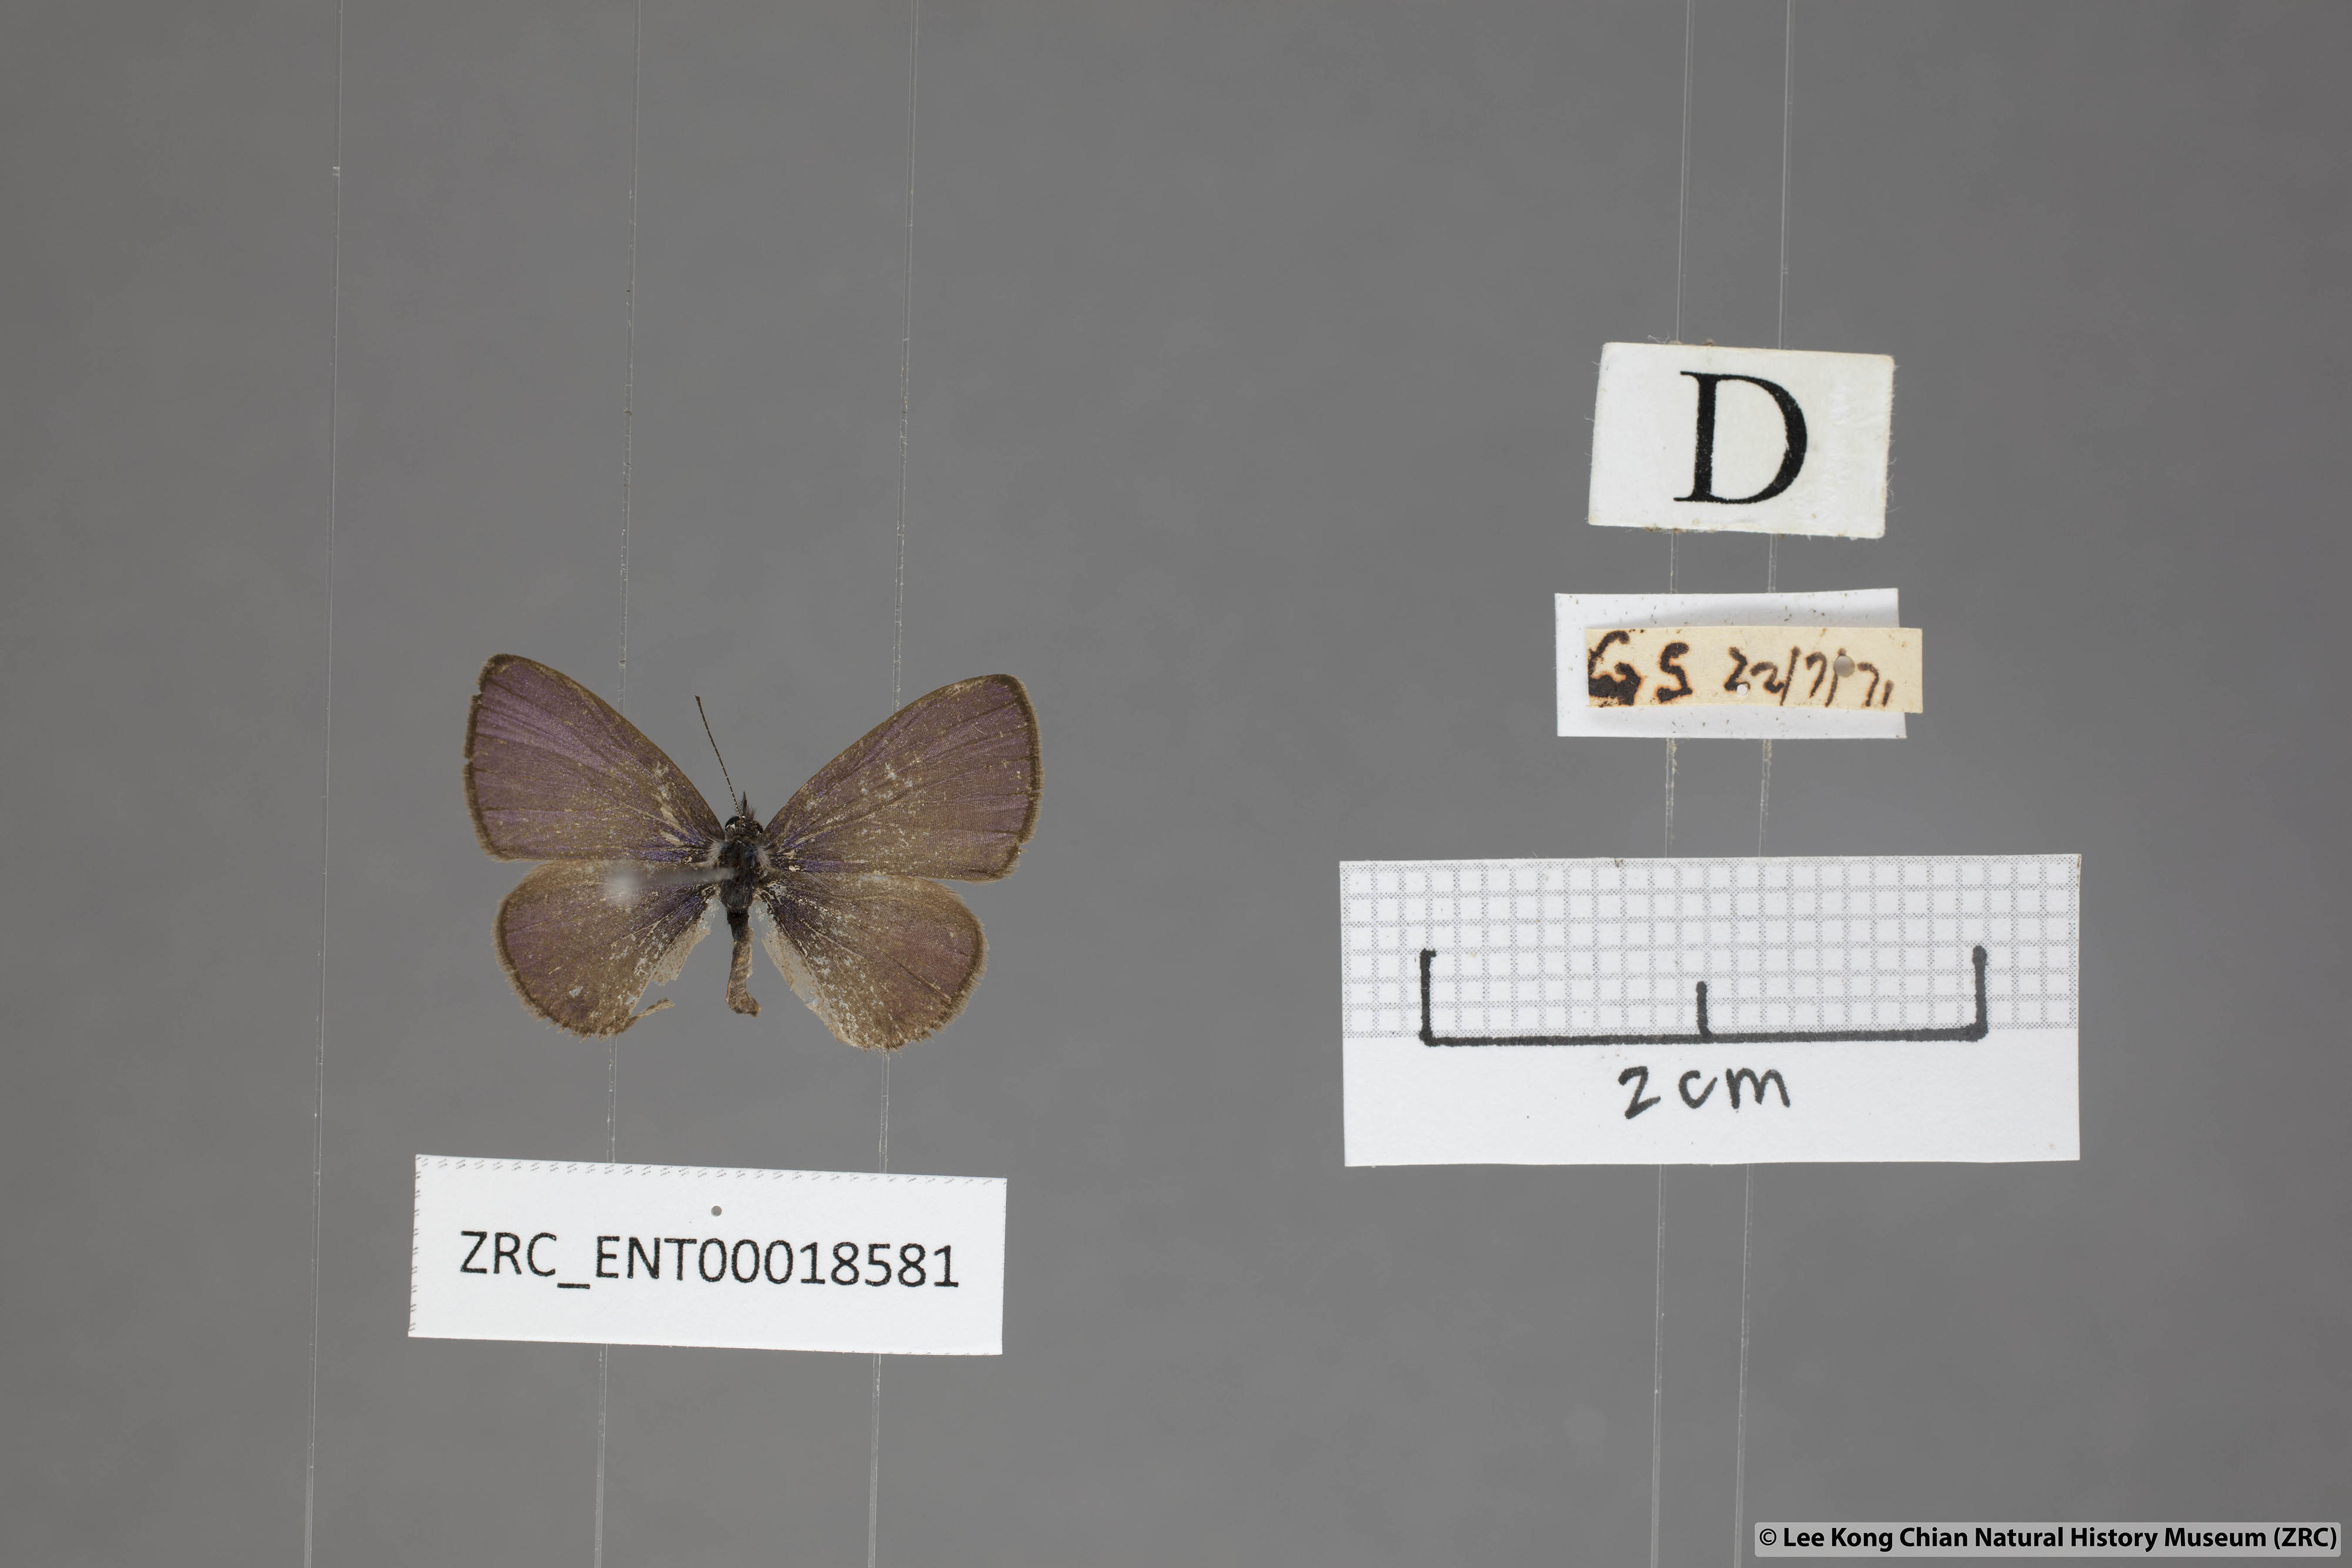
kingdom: Animalia
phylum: Arthropoda
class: Insecta
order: Lepidoptera
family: Lycaenidae
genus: Prosotas
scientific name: Prosotas dubiosa
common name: Tailless lineblue
